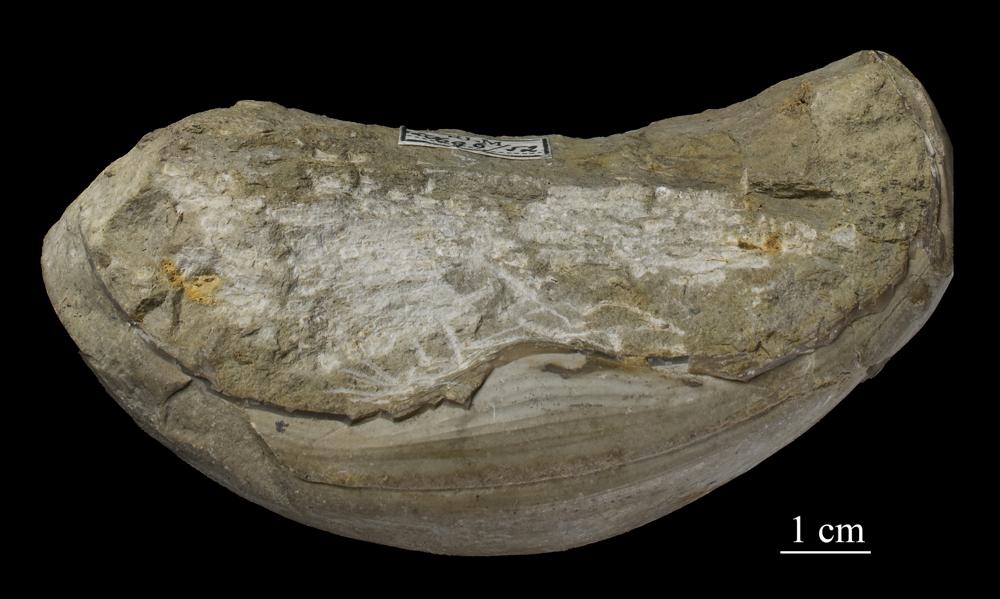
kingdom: Animalia
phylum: Arthropoda
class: Trilobita
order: Corynexochida
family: Illaenidae
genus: Illaenus
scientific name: Illaenus
